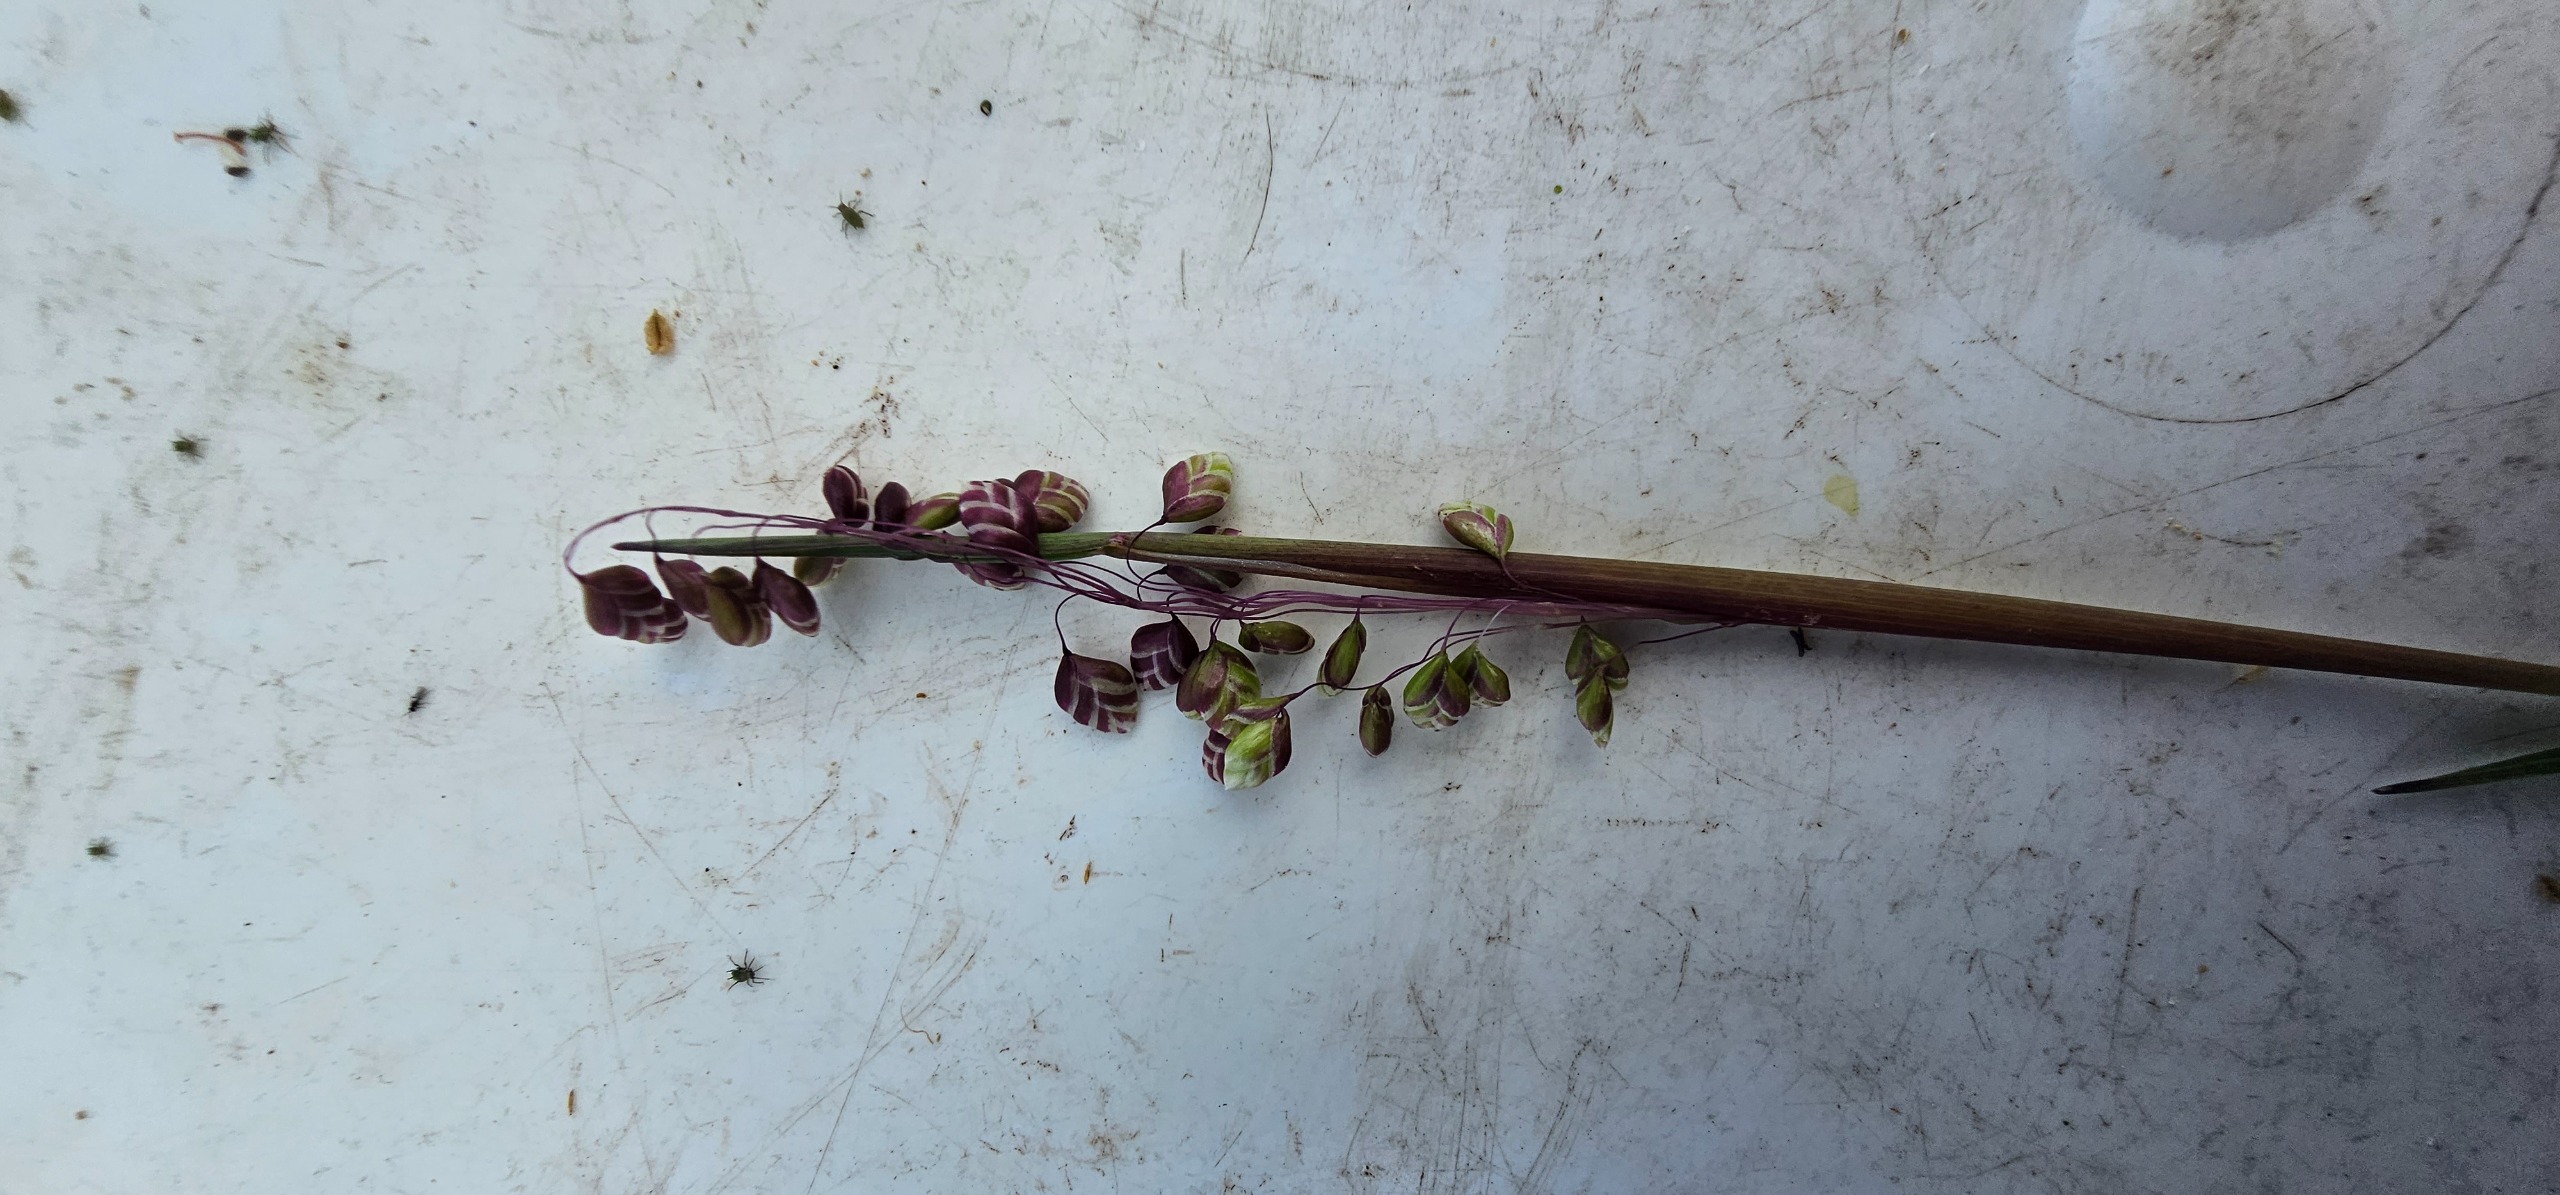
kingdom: Plantae
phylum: Tracheophyta
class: Liliopsida
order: Poales
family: Poaceae
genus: Briza
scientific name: Briza media
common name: Hjertegræs
